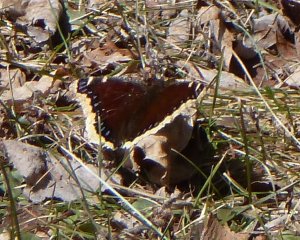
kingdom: Animalia
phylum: Arthropoda
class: Insecta
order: Lepidoptera
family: Nymphalidae
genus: Nymphalis
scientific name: Nymphalis antiopa
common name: Mourning Cloak
